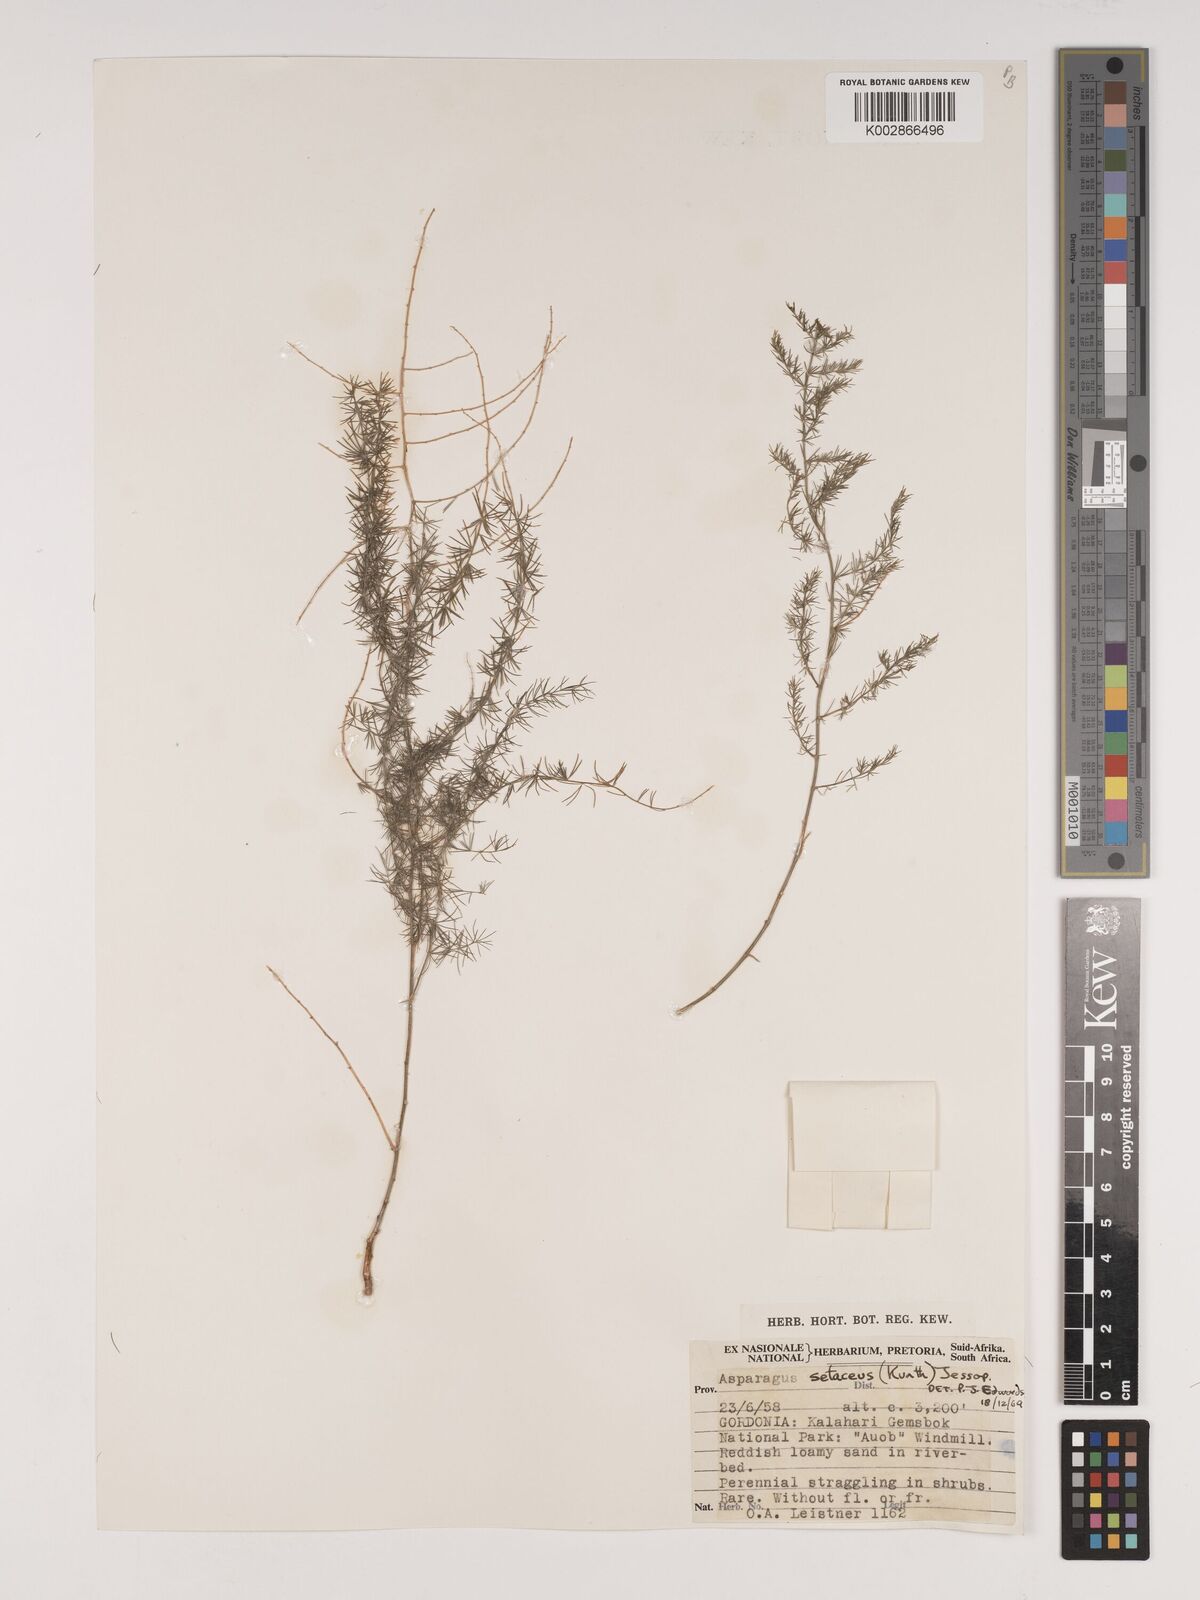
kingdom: Plantae
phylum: Tracheophyta
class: Liliopsida
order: Asparagales
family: Asparagaceae
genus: Asparagus
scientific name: Asparagus setaceus
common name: Common asparagus fern
